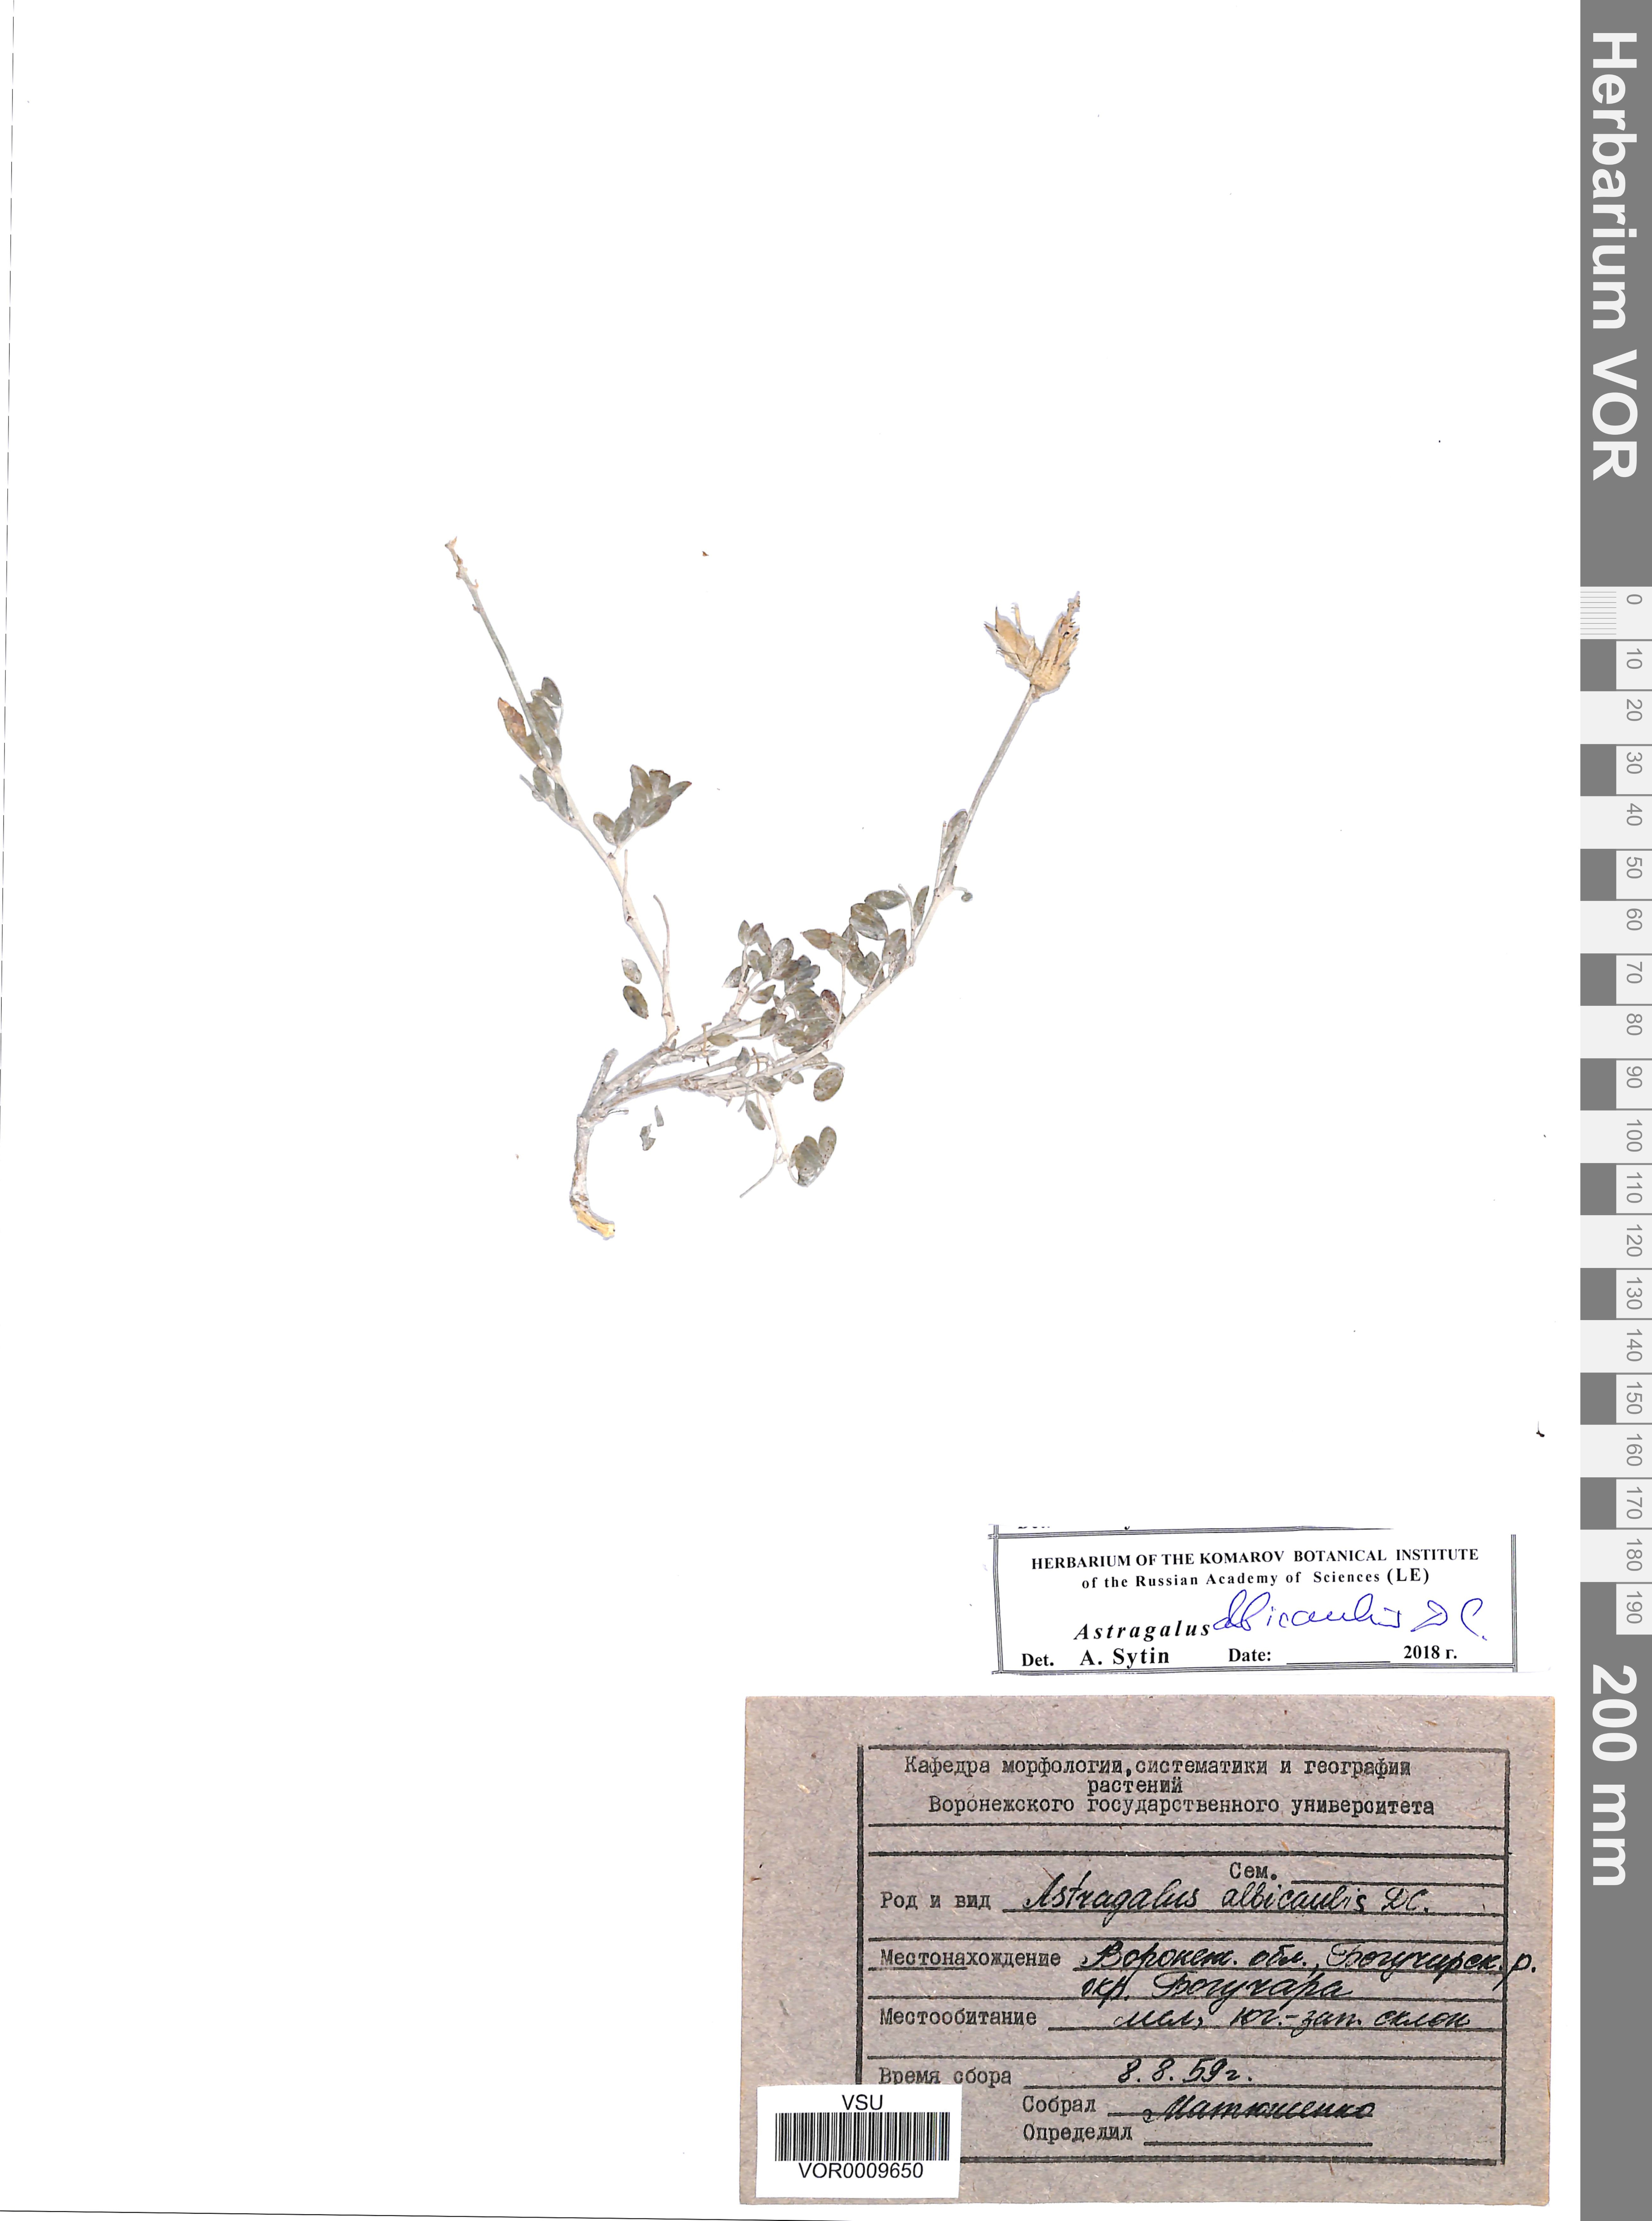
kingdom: Plantae
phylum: Tracheophyta
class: Magnoliopsida
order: Fabales
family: Fabaceae
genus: Astragalus
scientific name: Astragalus albicaulis
